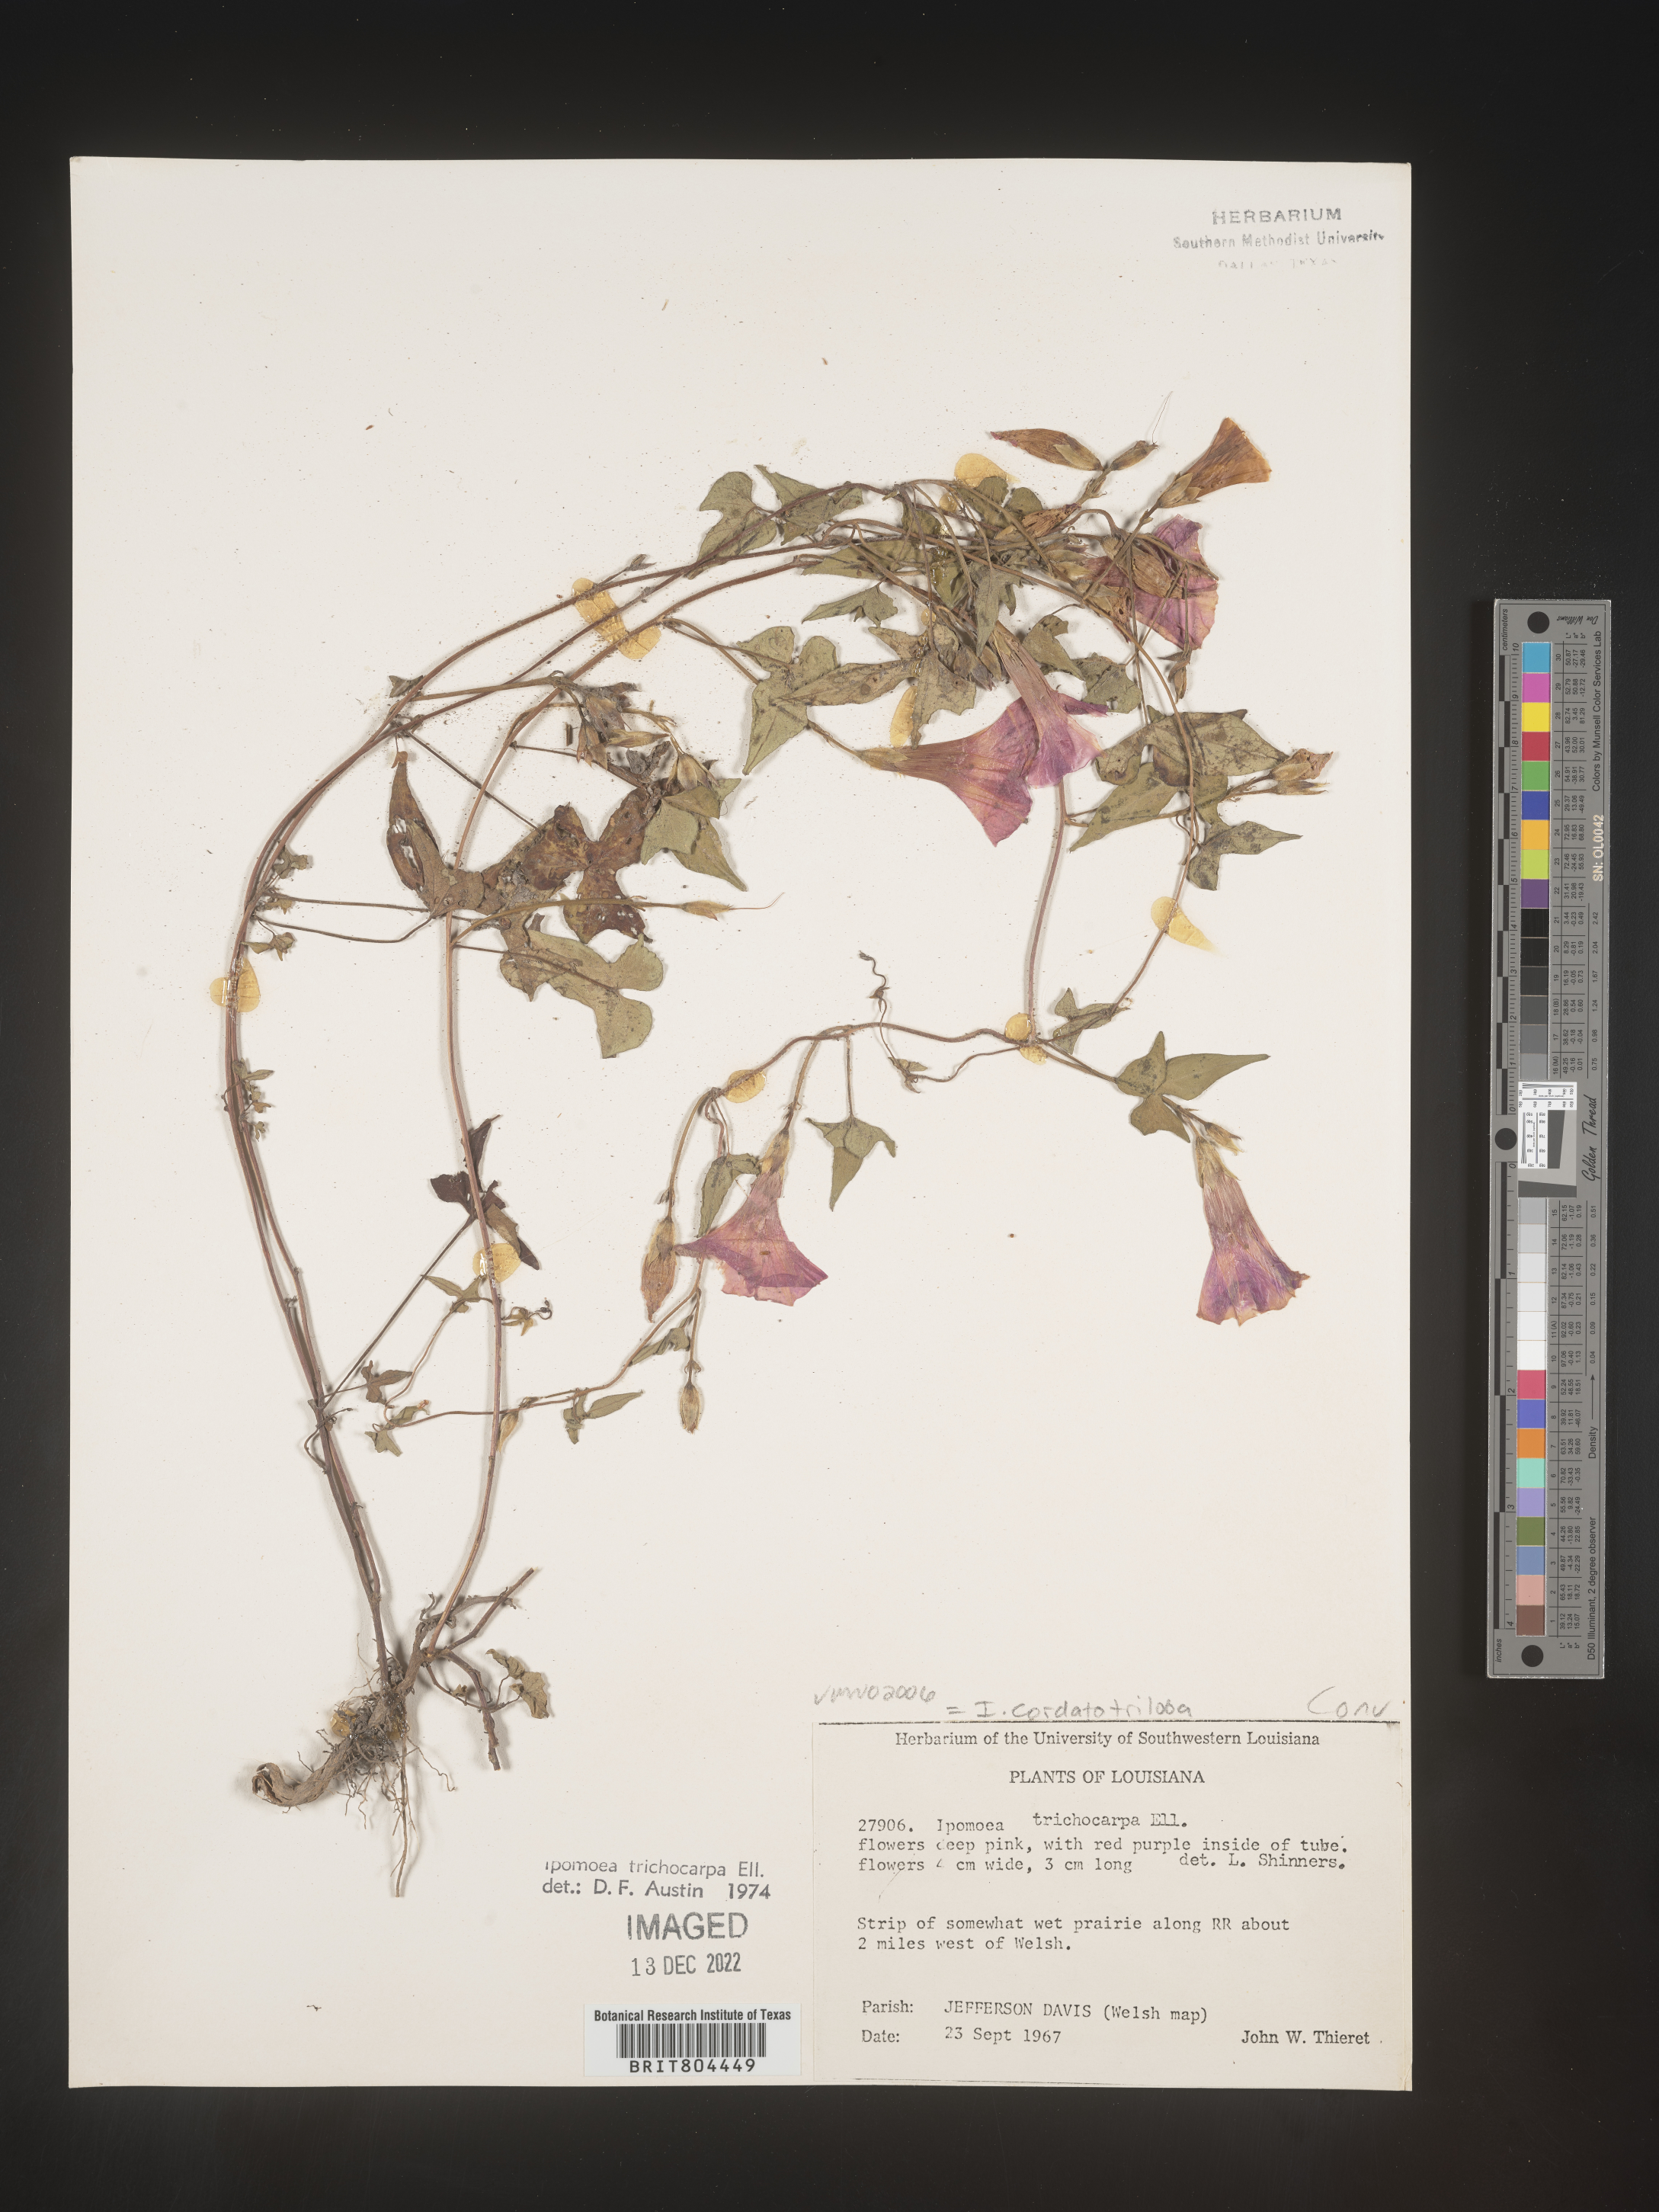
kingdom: Plantae
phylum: Tracheophyta
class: Magnoliopsida
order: Solanales
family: Convolvulaceae
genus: Ipomoea
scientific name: Ipomoea cordatotriloba
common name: Cotton morning glory
